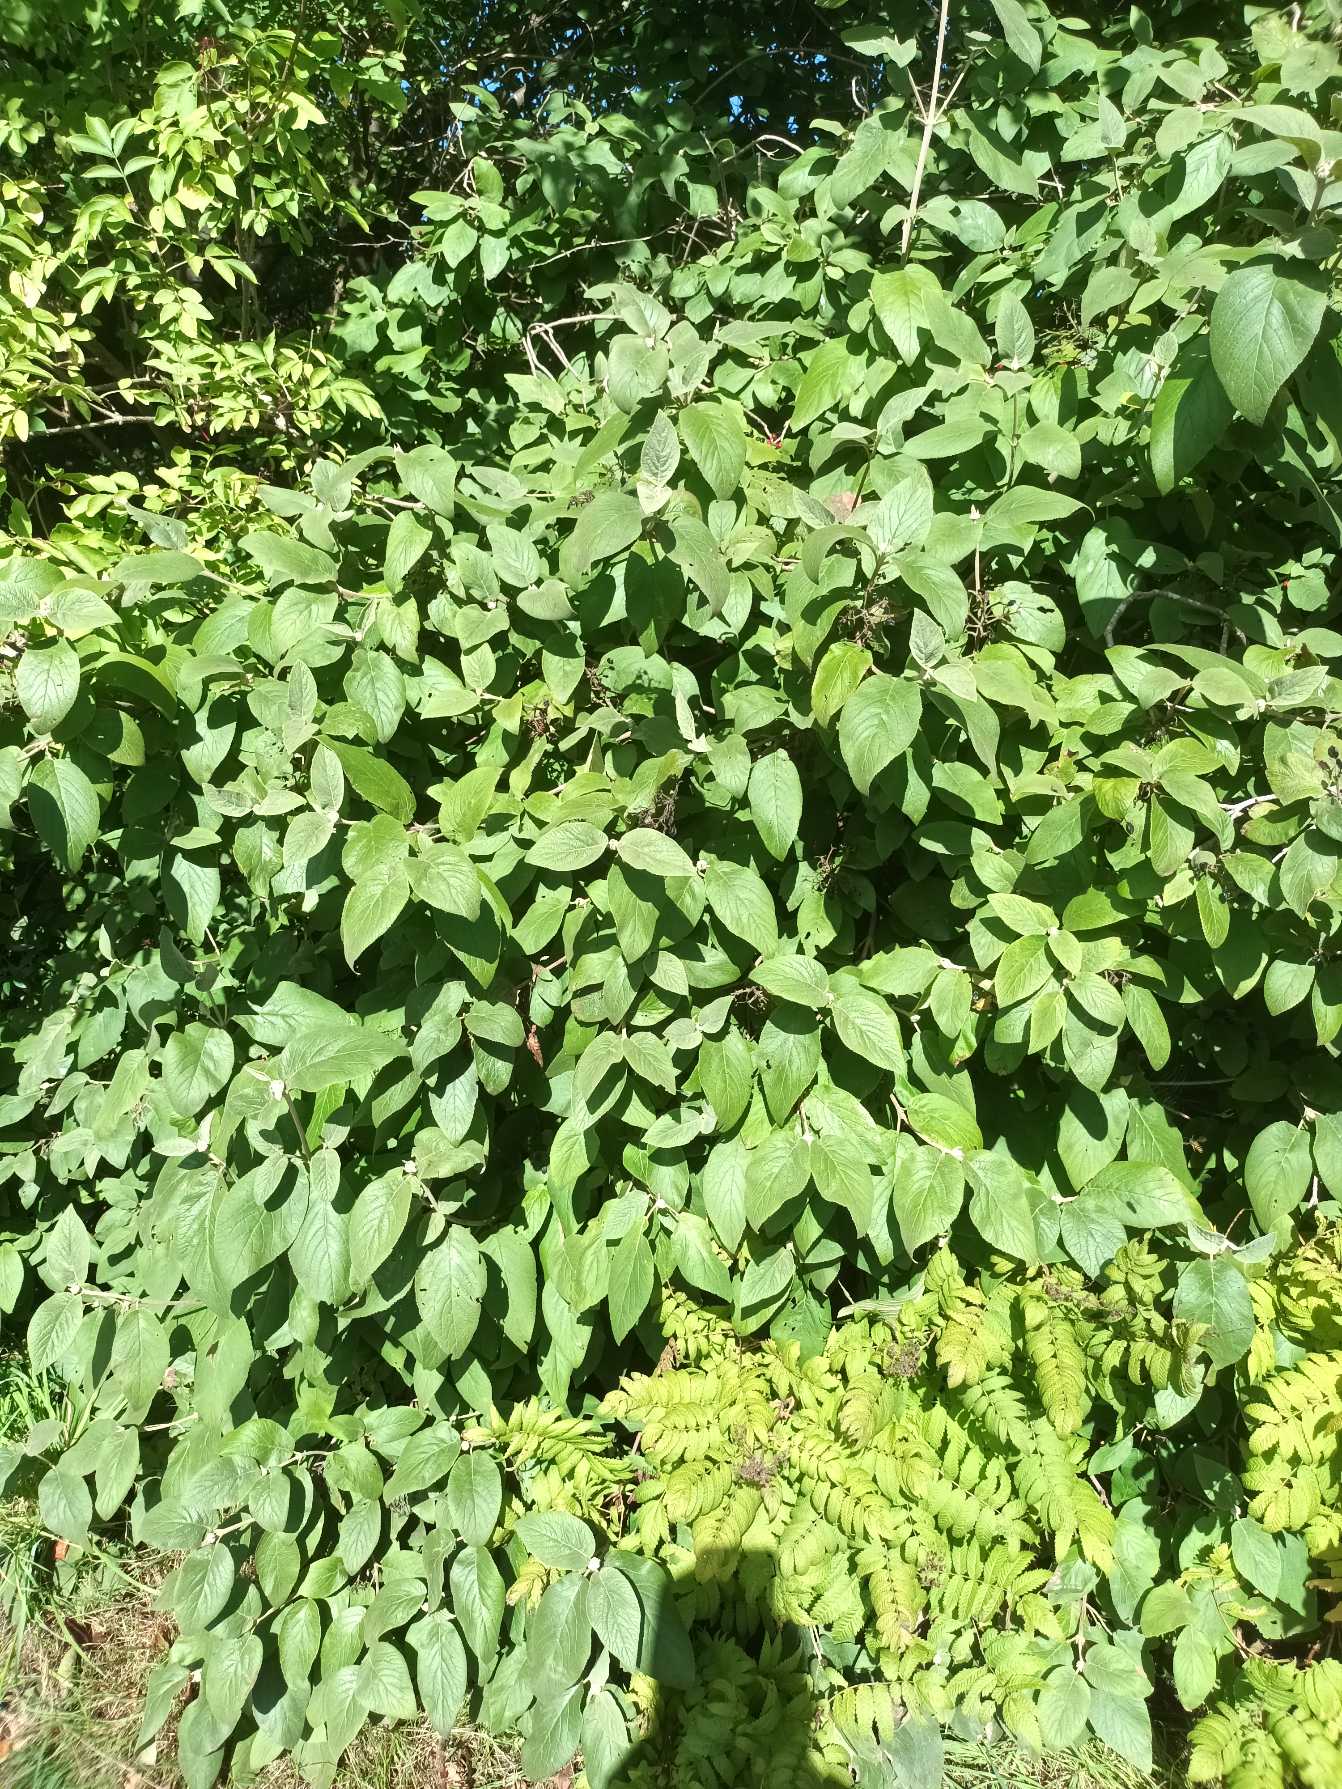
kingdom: Plantae
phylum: Tracheophyta
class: Magnoliopsida
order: Dipsacales
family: Viburnaceae
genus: Viburnum
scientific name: Viburnum lantana
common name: Pibe-kvalkved
